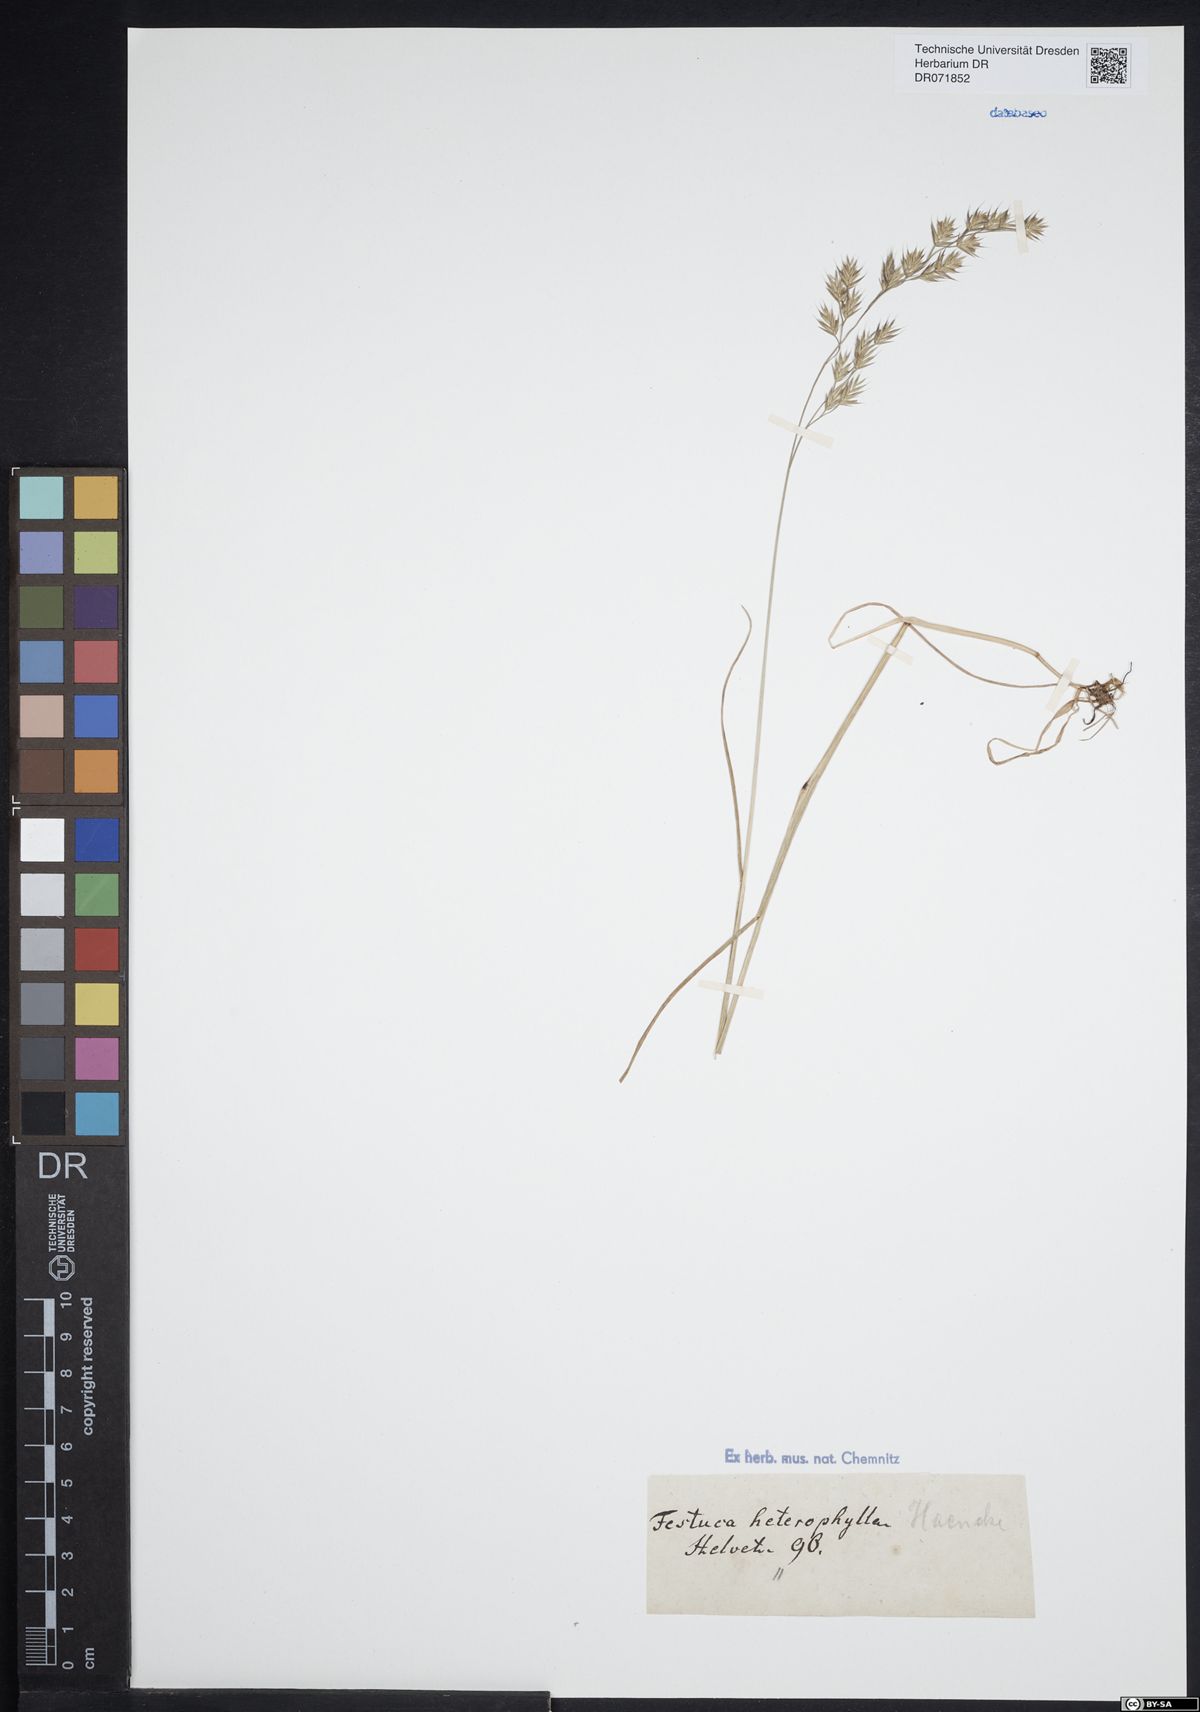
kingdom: Plantae
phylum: Tracheophyta
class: Liliopsida
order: Poales
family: Poaceae
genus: Festuca
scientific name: Festuca heterophylla
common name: Various-leaved fescue
